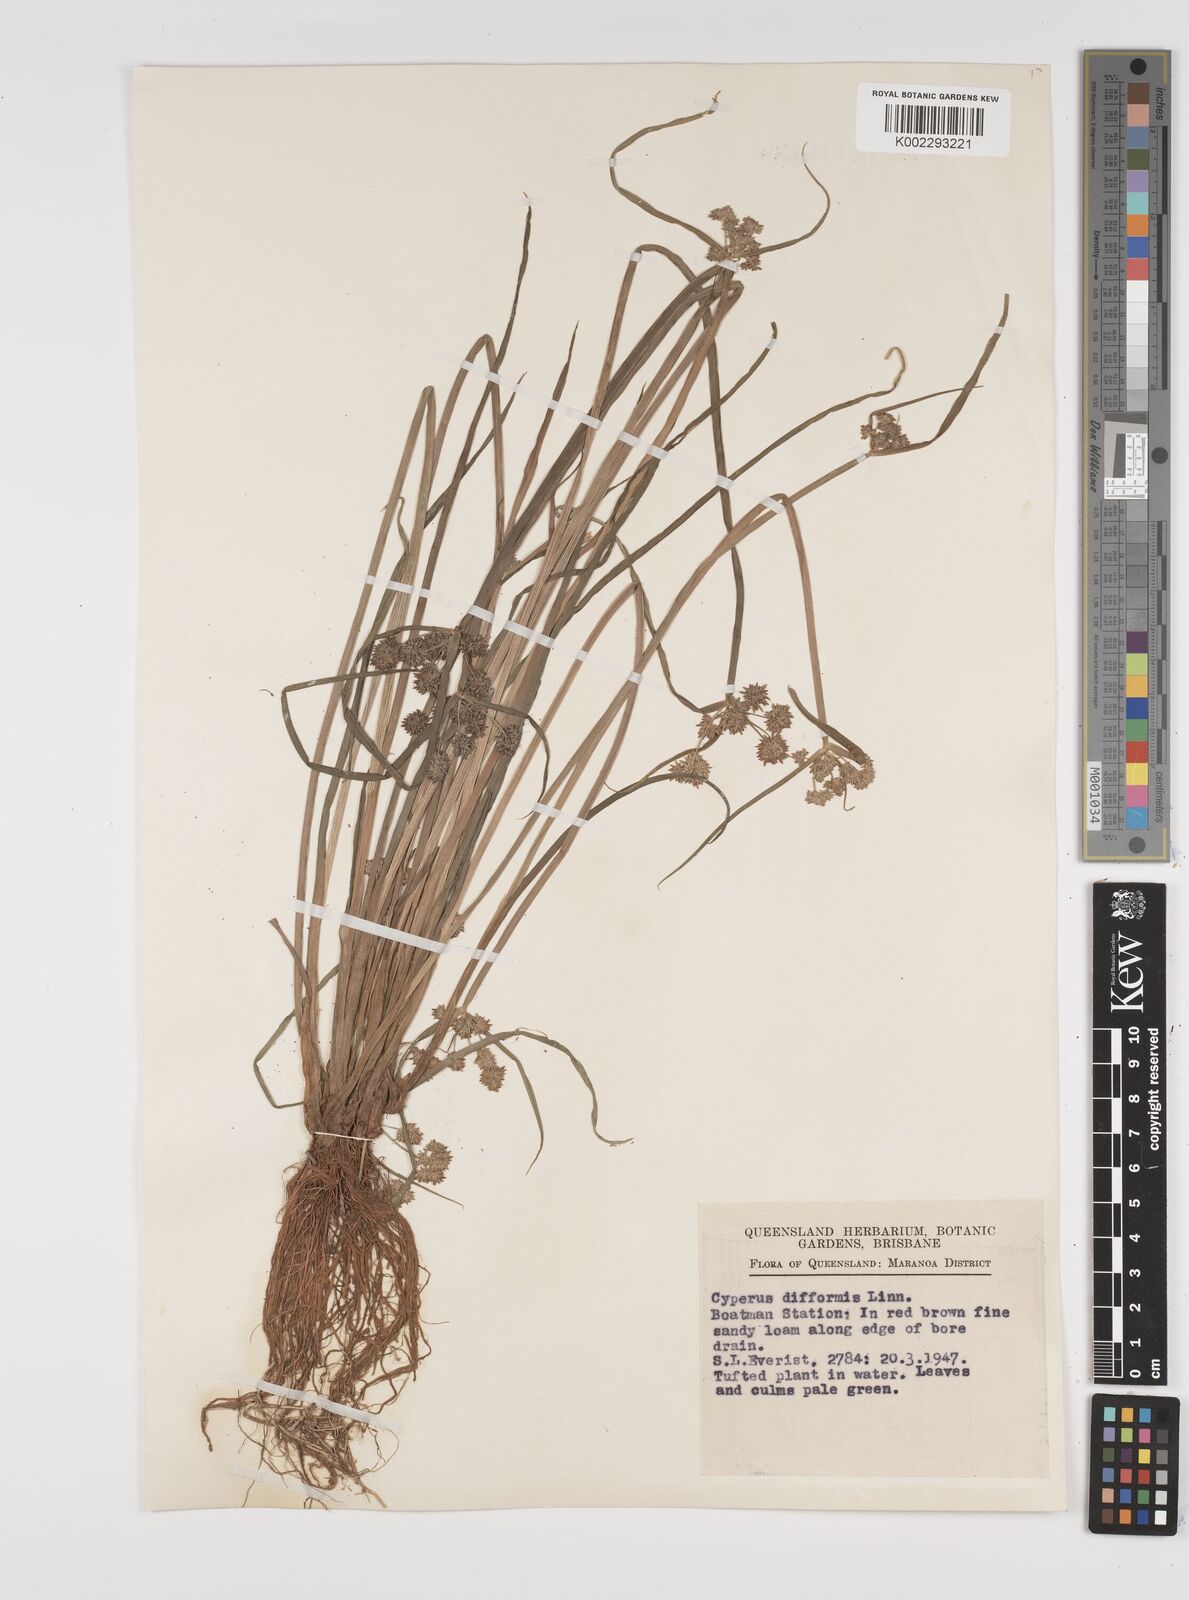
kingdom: Plantae
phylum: Tracheophyta
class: Liliopsida
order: Poales
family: Cyperaceae
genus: Cyperus
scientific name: Cyperus difformis
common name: Variable flatsedge
